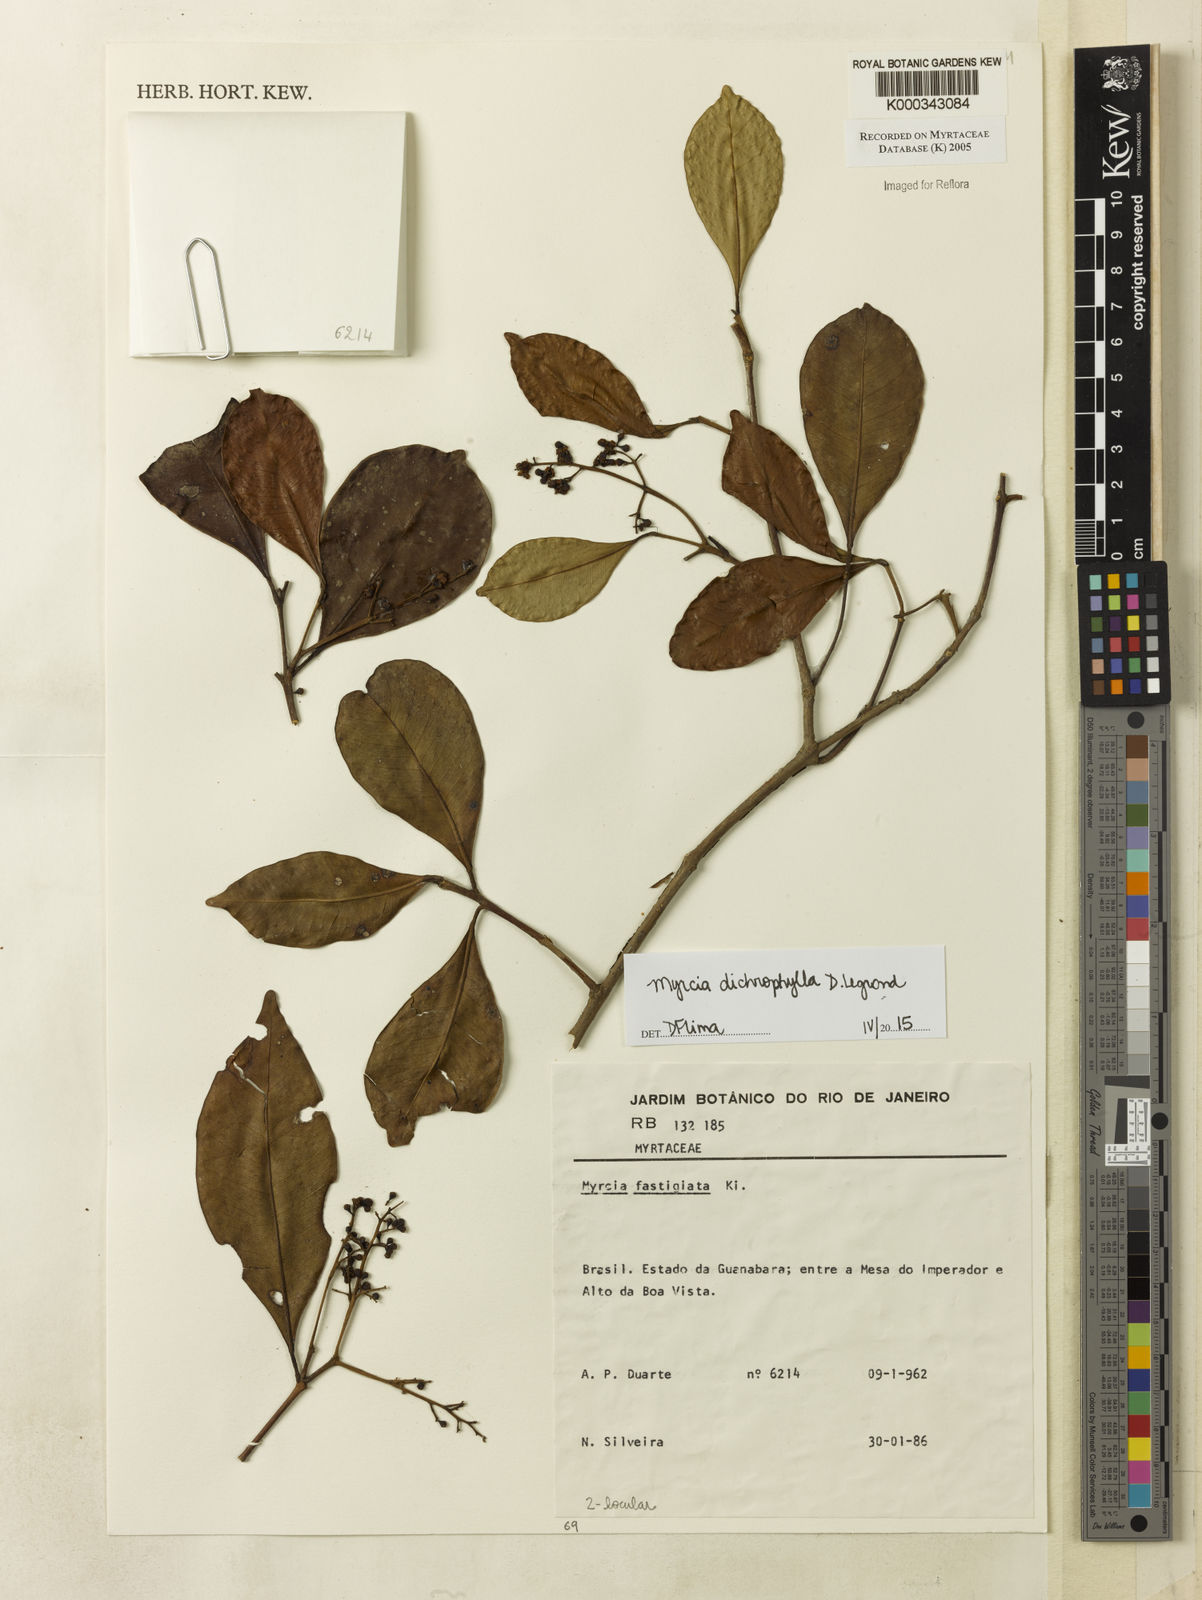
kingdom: Plantae
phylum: Tracheophyta
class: Magnoliopsida
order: Myrtales
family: Myrtaceae
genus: Myrcia
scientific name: Myrcia guianensis
